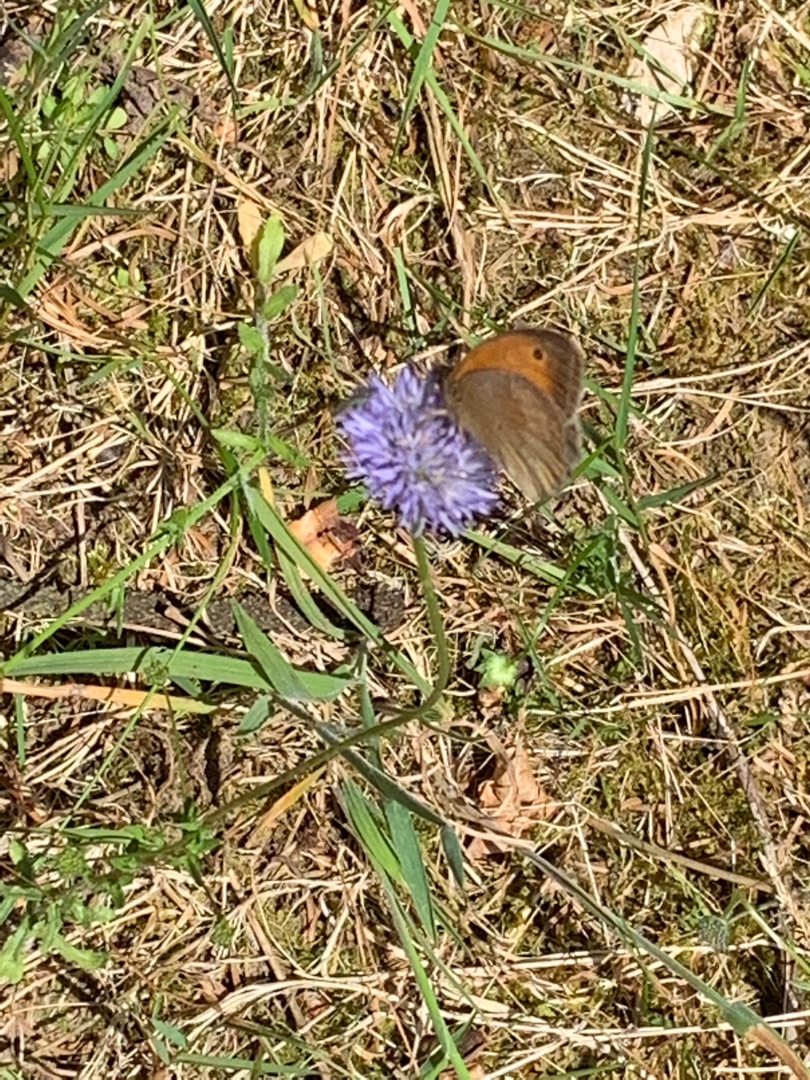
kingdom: Animalia
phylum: Arthropoda
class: Insecta
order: Lepidoptera
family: Nymphalidae
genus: Maniola
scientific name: Maniola jurtina
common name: Græsrandøje
